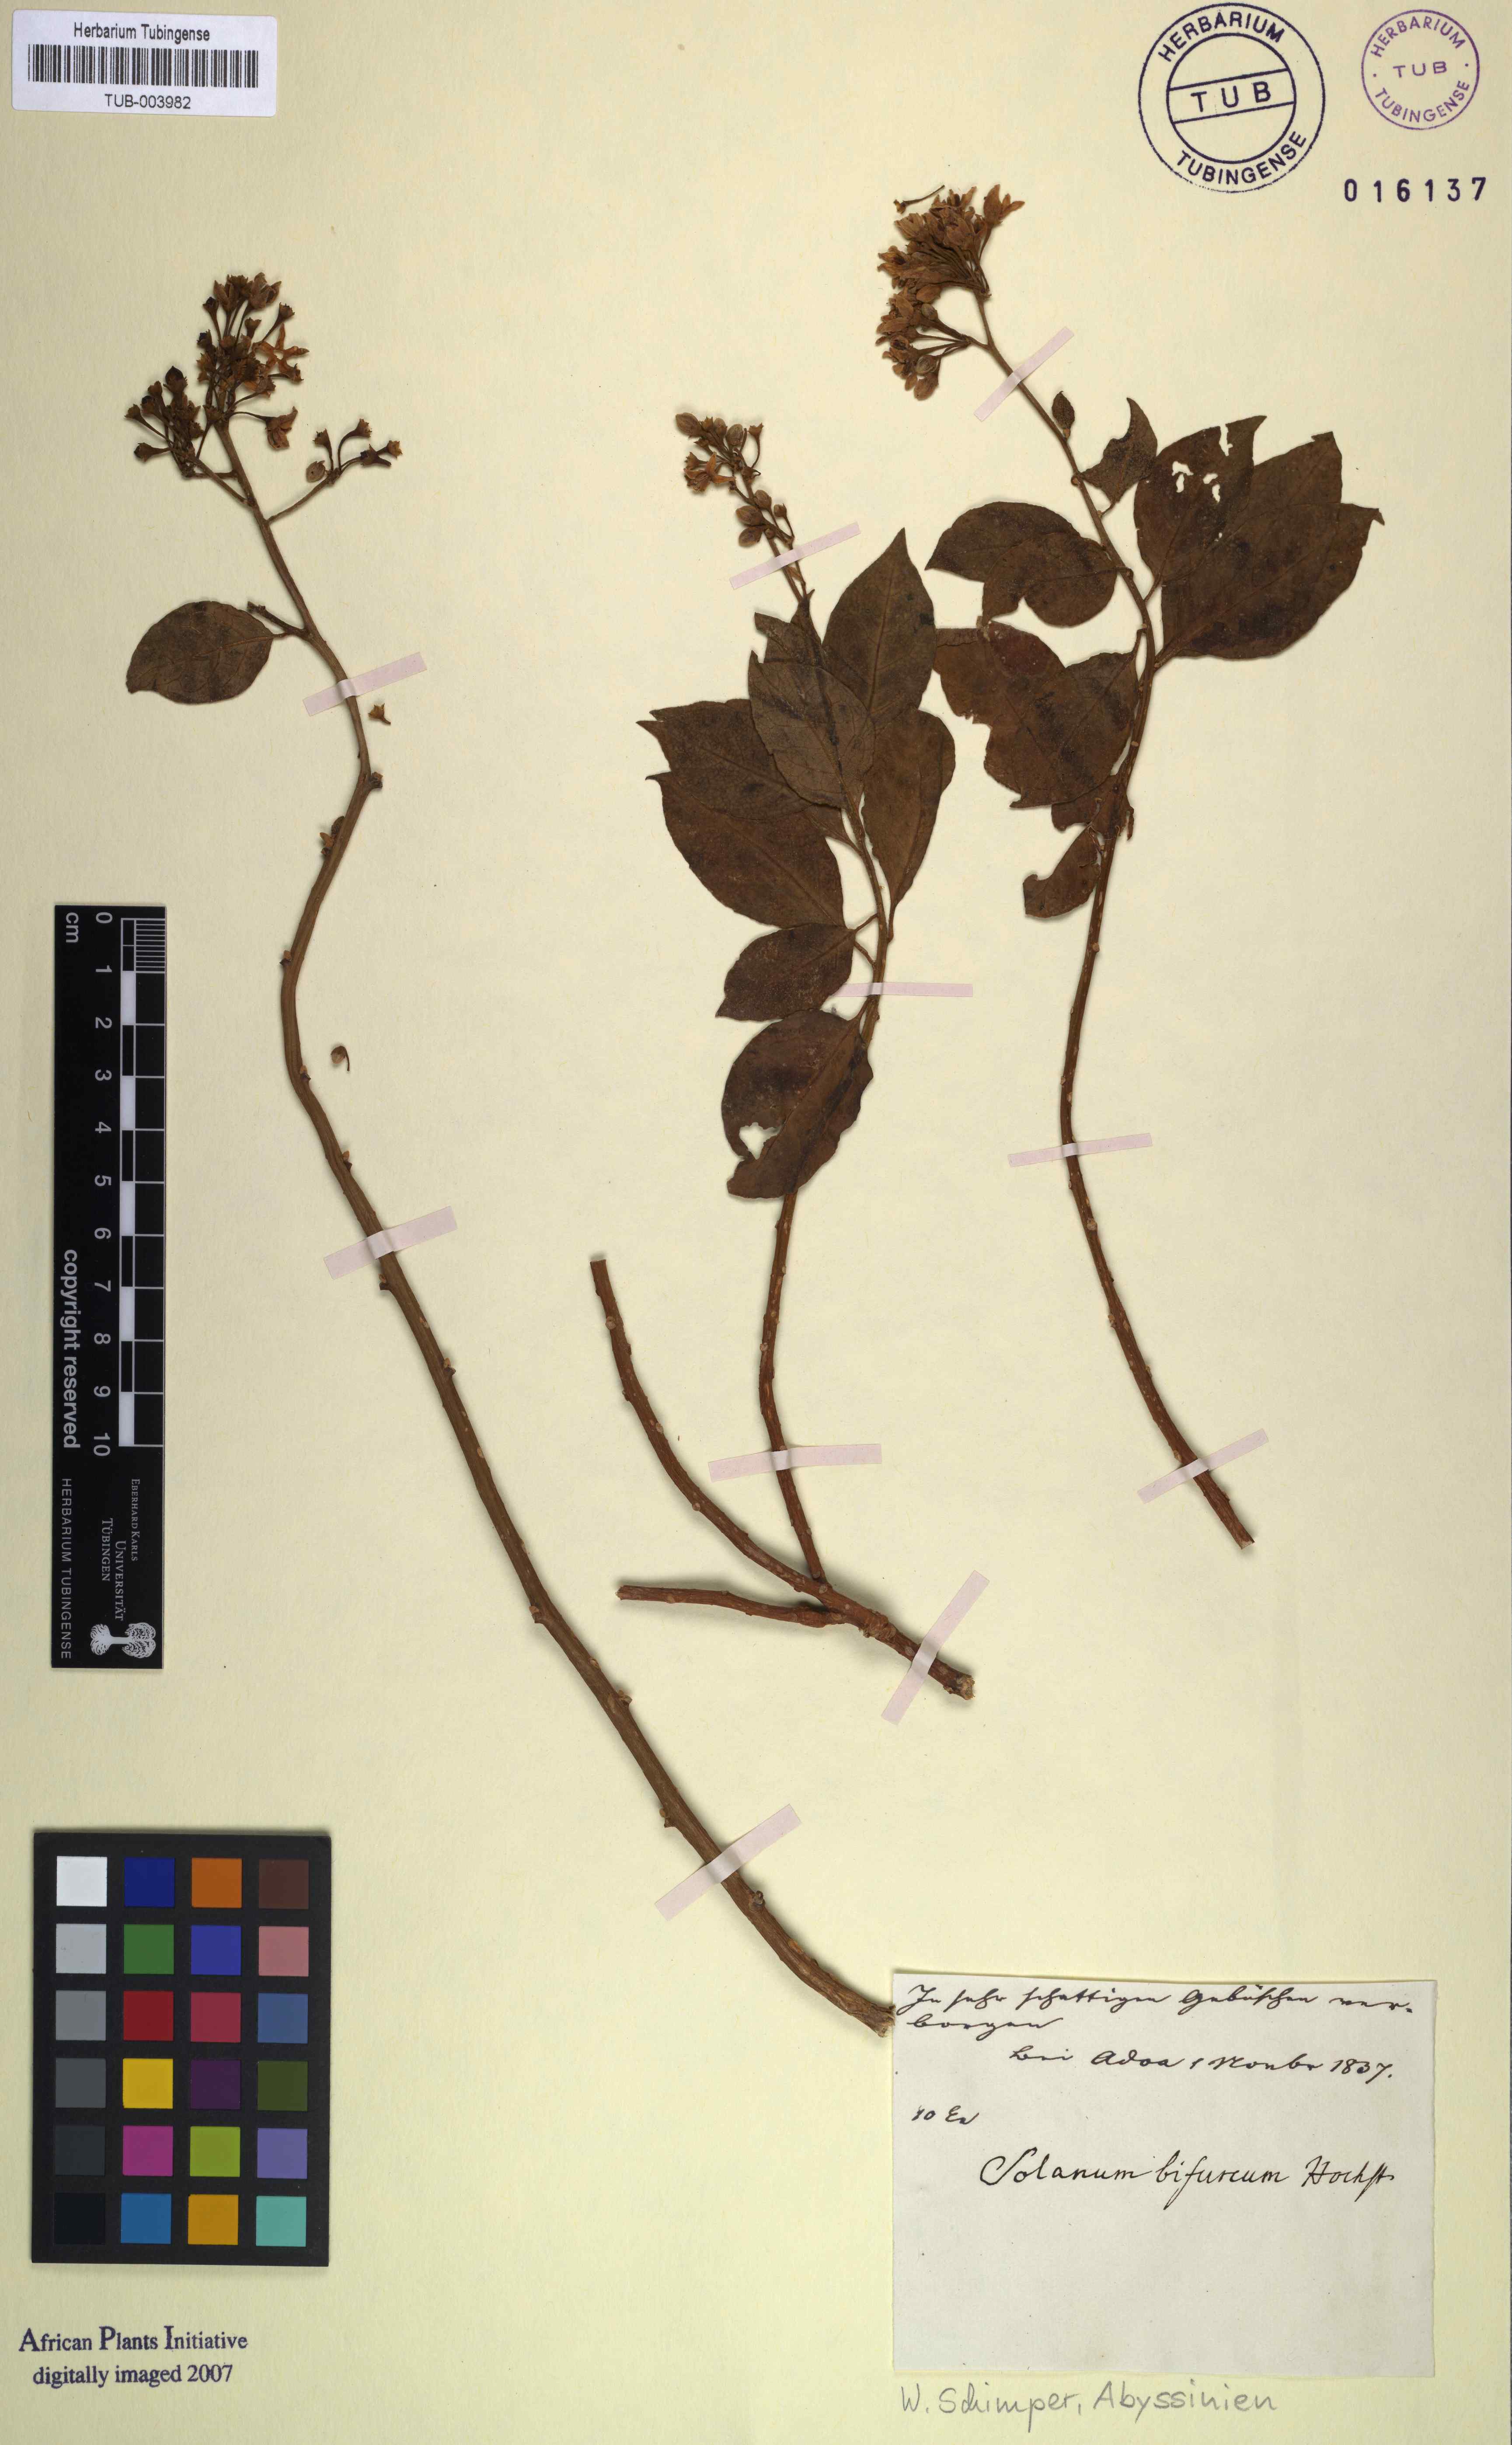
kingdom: Plantae
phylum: Tracheophyta
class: Magnoliopsida
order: Solanales
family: Solanaceae
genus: Solanum
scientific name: Solanum terminale
